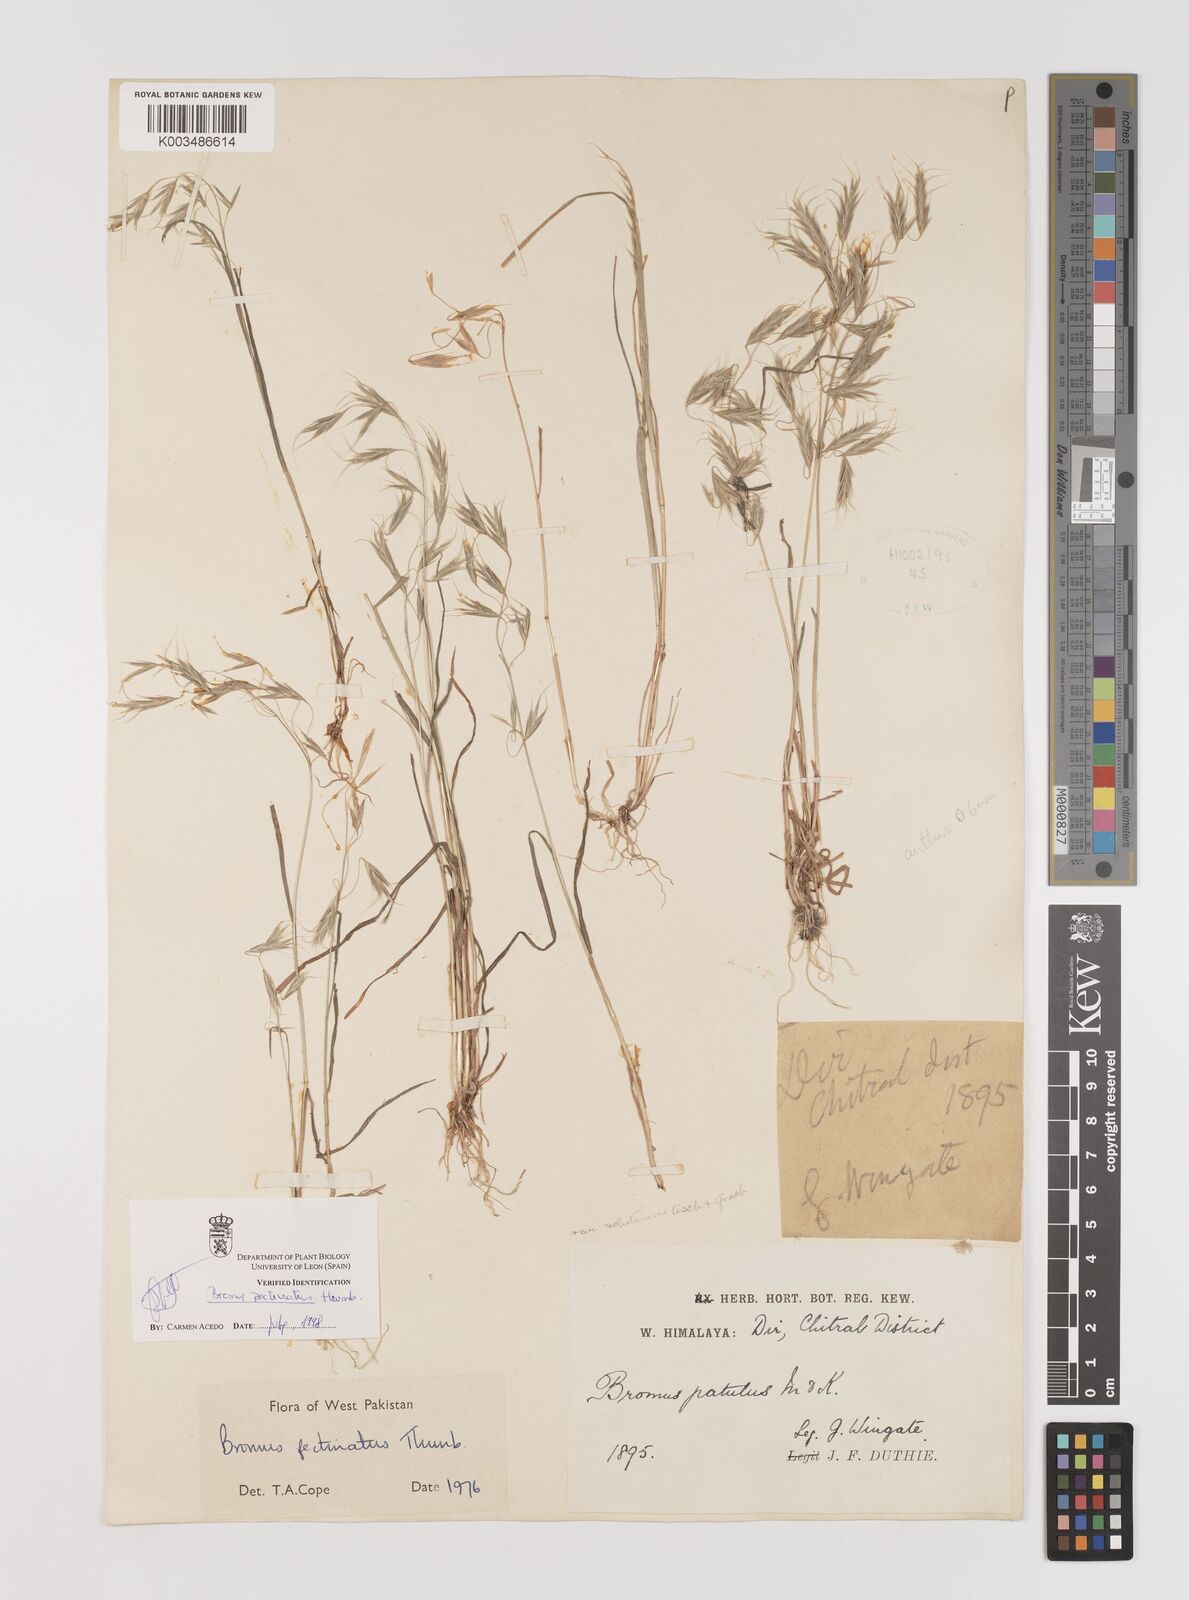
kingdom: Plantae
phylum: Tracheophyta
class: Liliopsida
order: Poales
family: Poaceae
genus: Bromus
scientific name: Bromus pectinatus
